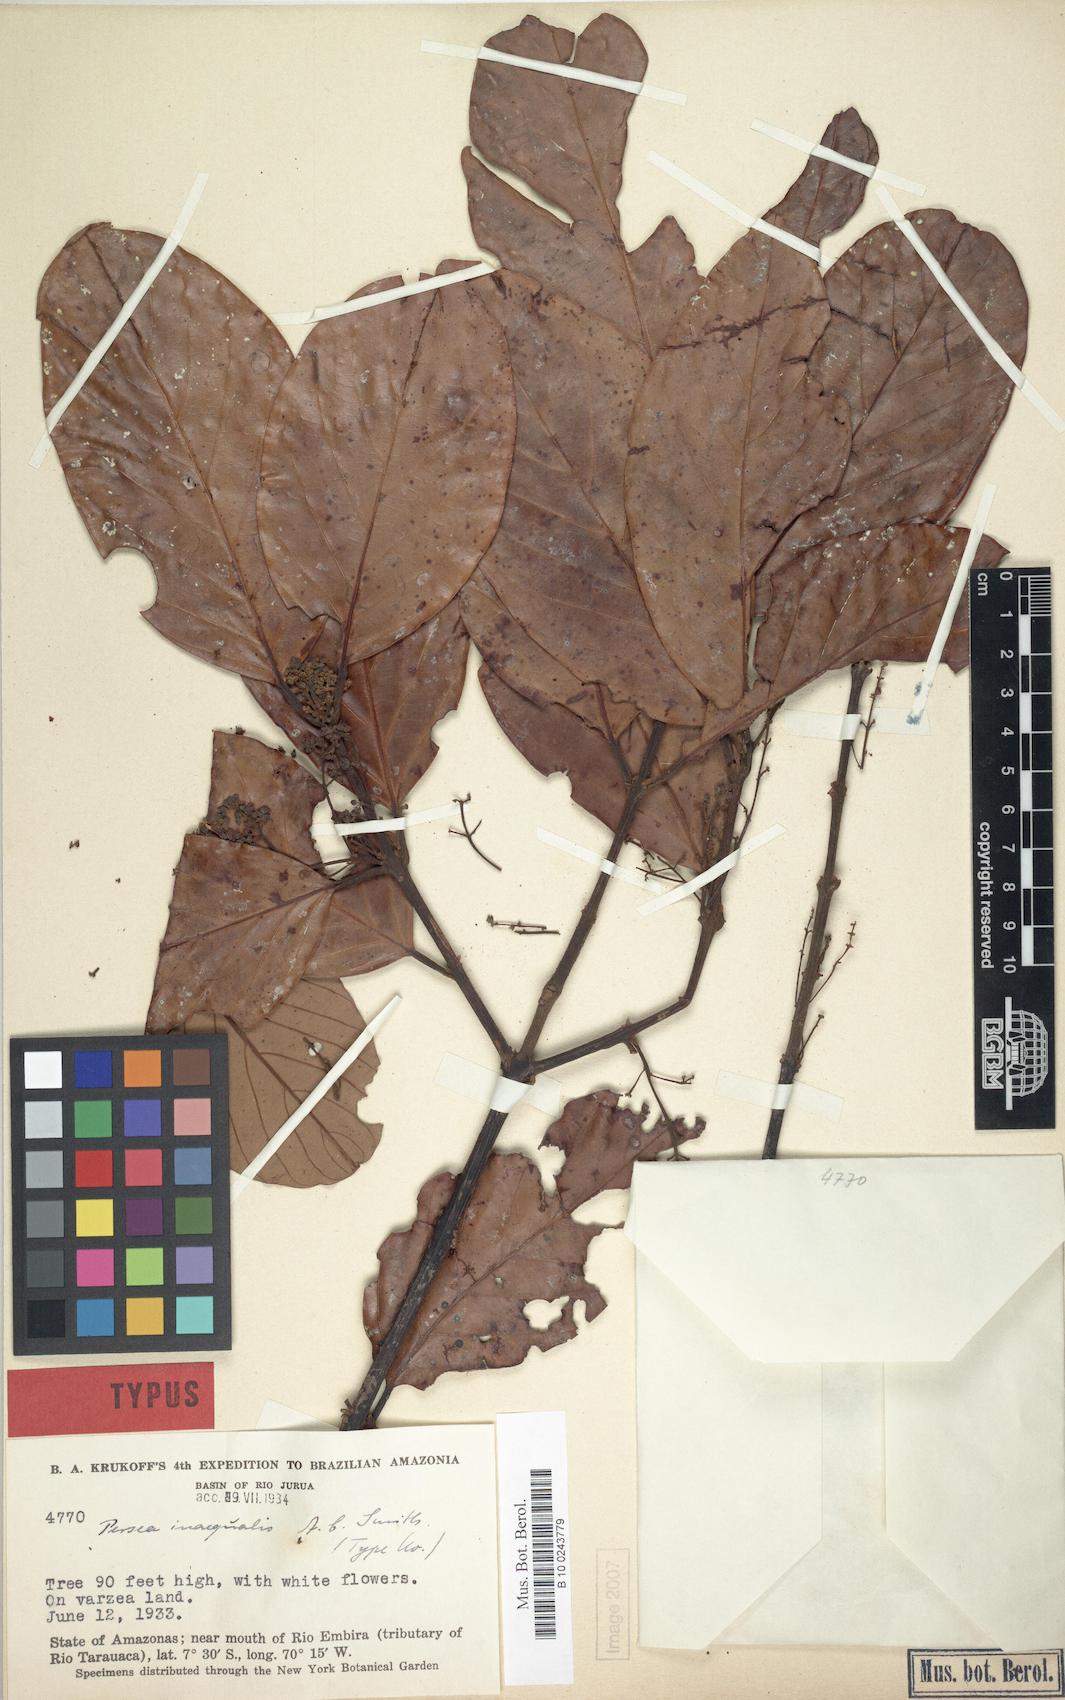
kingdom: Plantae
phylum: Tracheophyta
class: Magnoliopsida
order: Laurales
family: Lauraceae
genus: Caryodaphnopsis
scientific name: Caryodaphnopsis inaequalis
